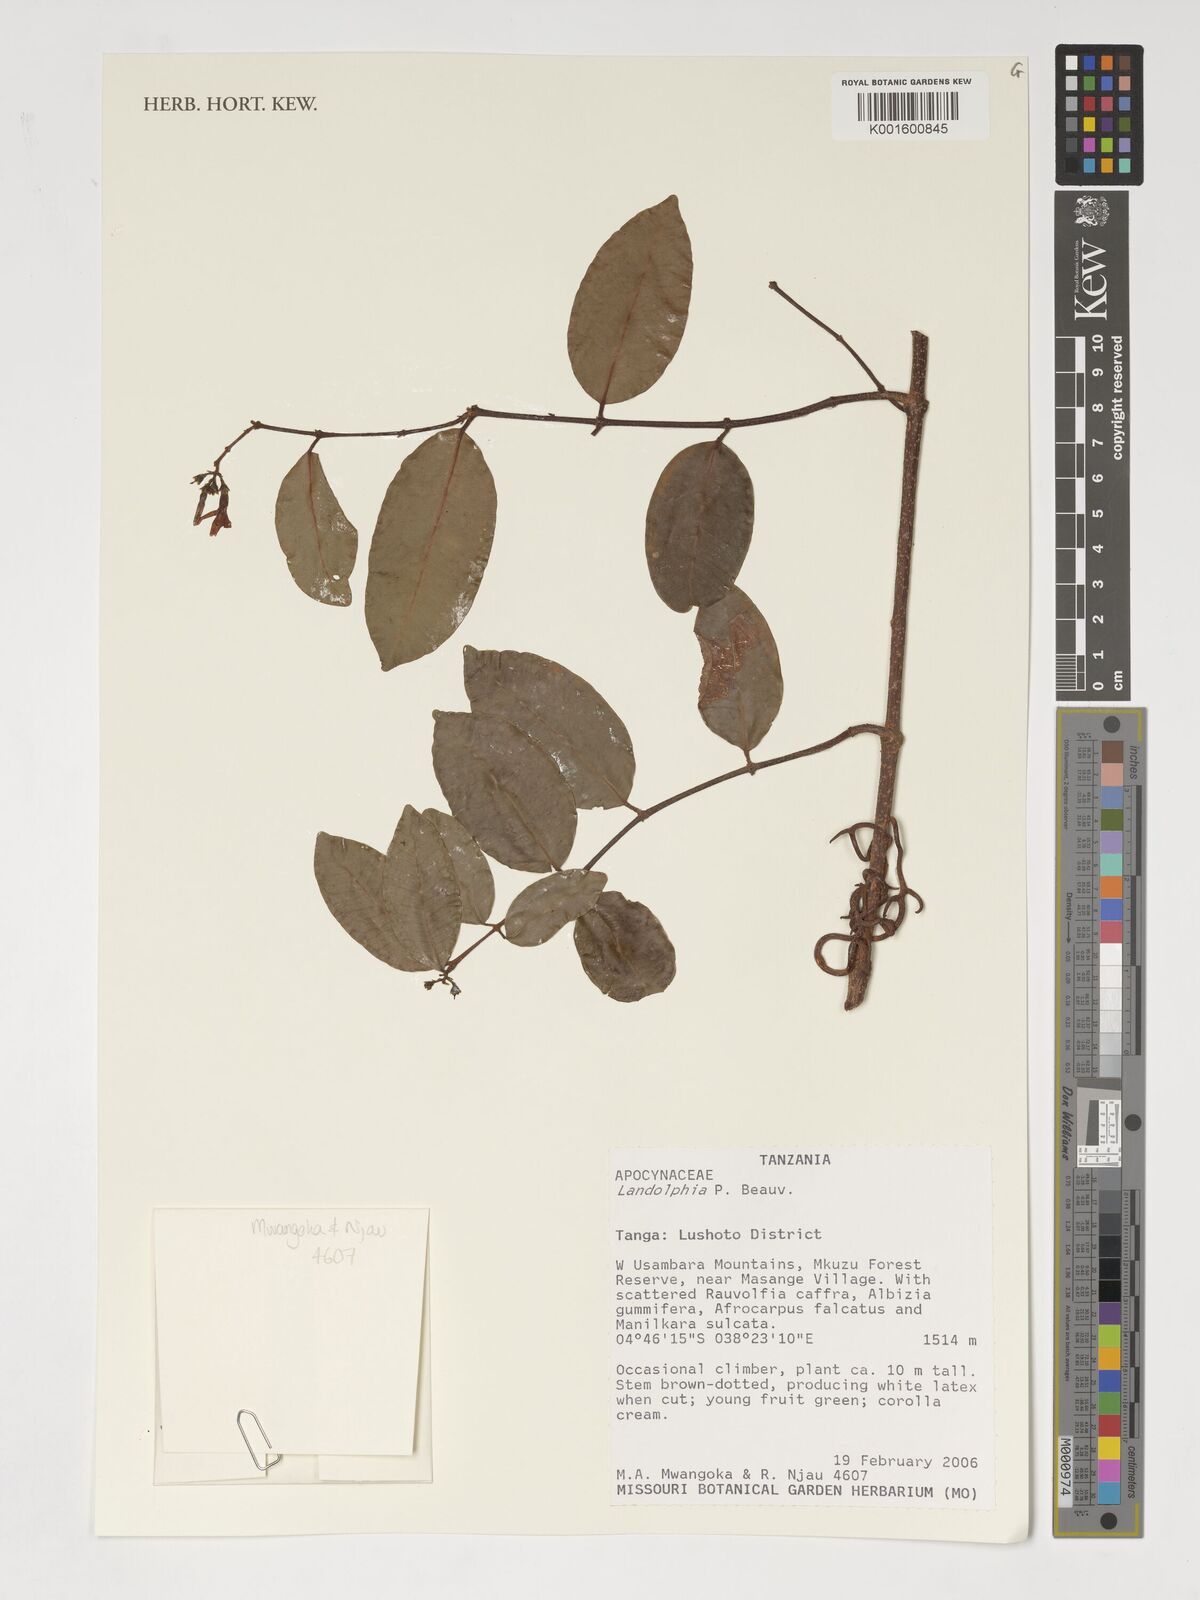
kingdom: Plantae
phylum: Tracheophyta
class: Magnoliopsida
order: Gentianales
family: Apocynaceae
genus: Landolphia
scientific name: Landolphia
